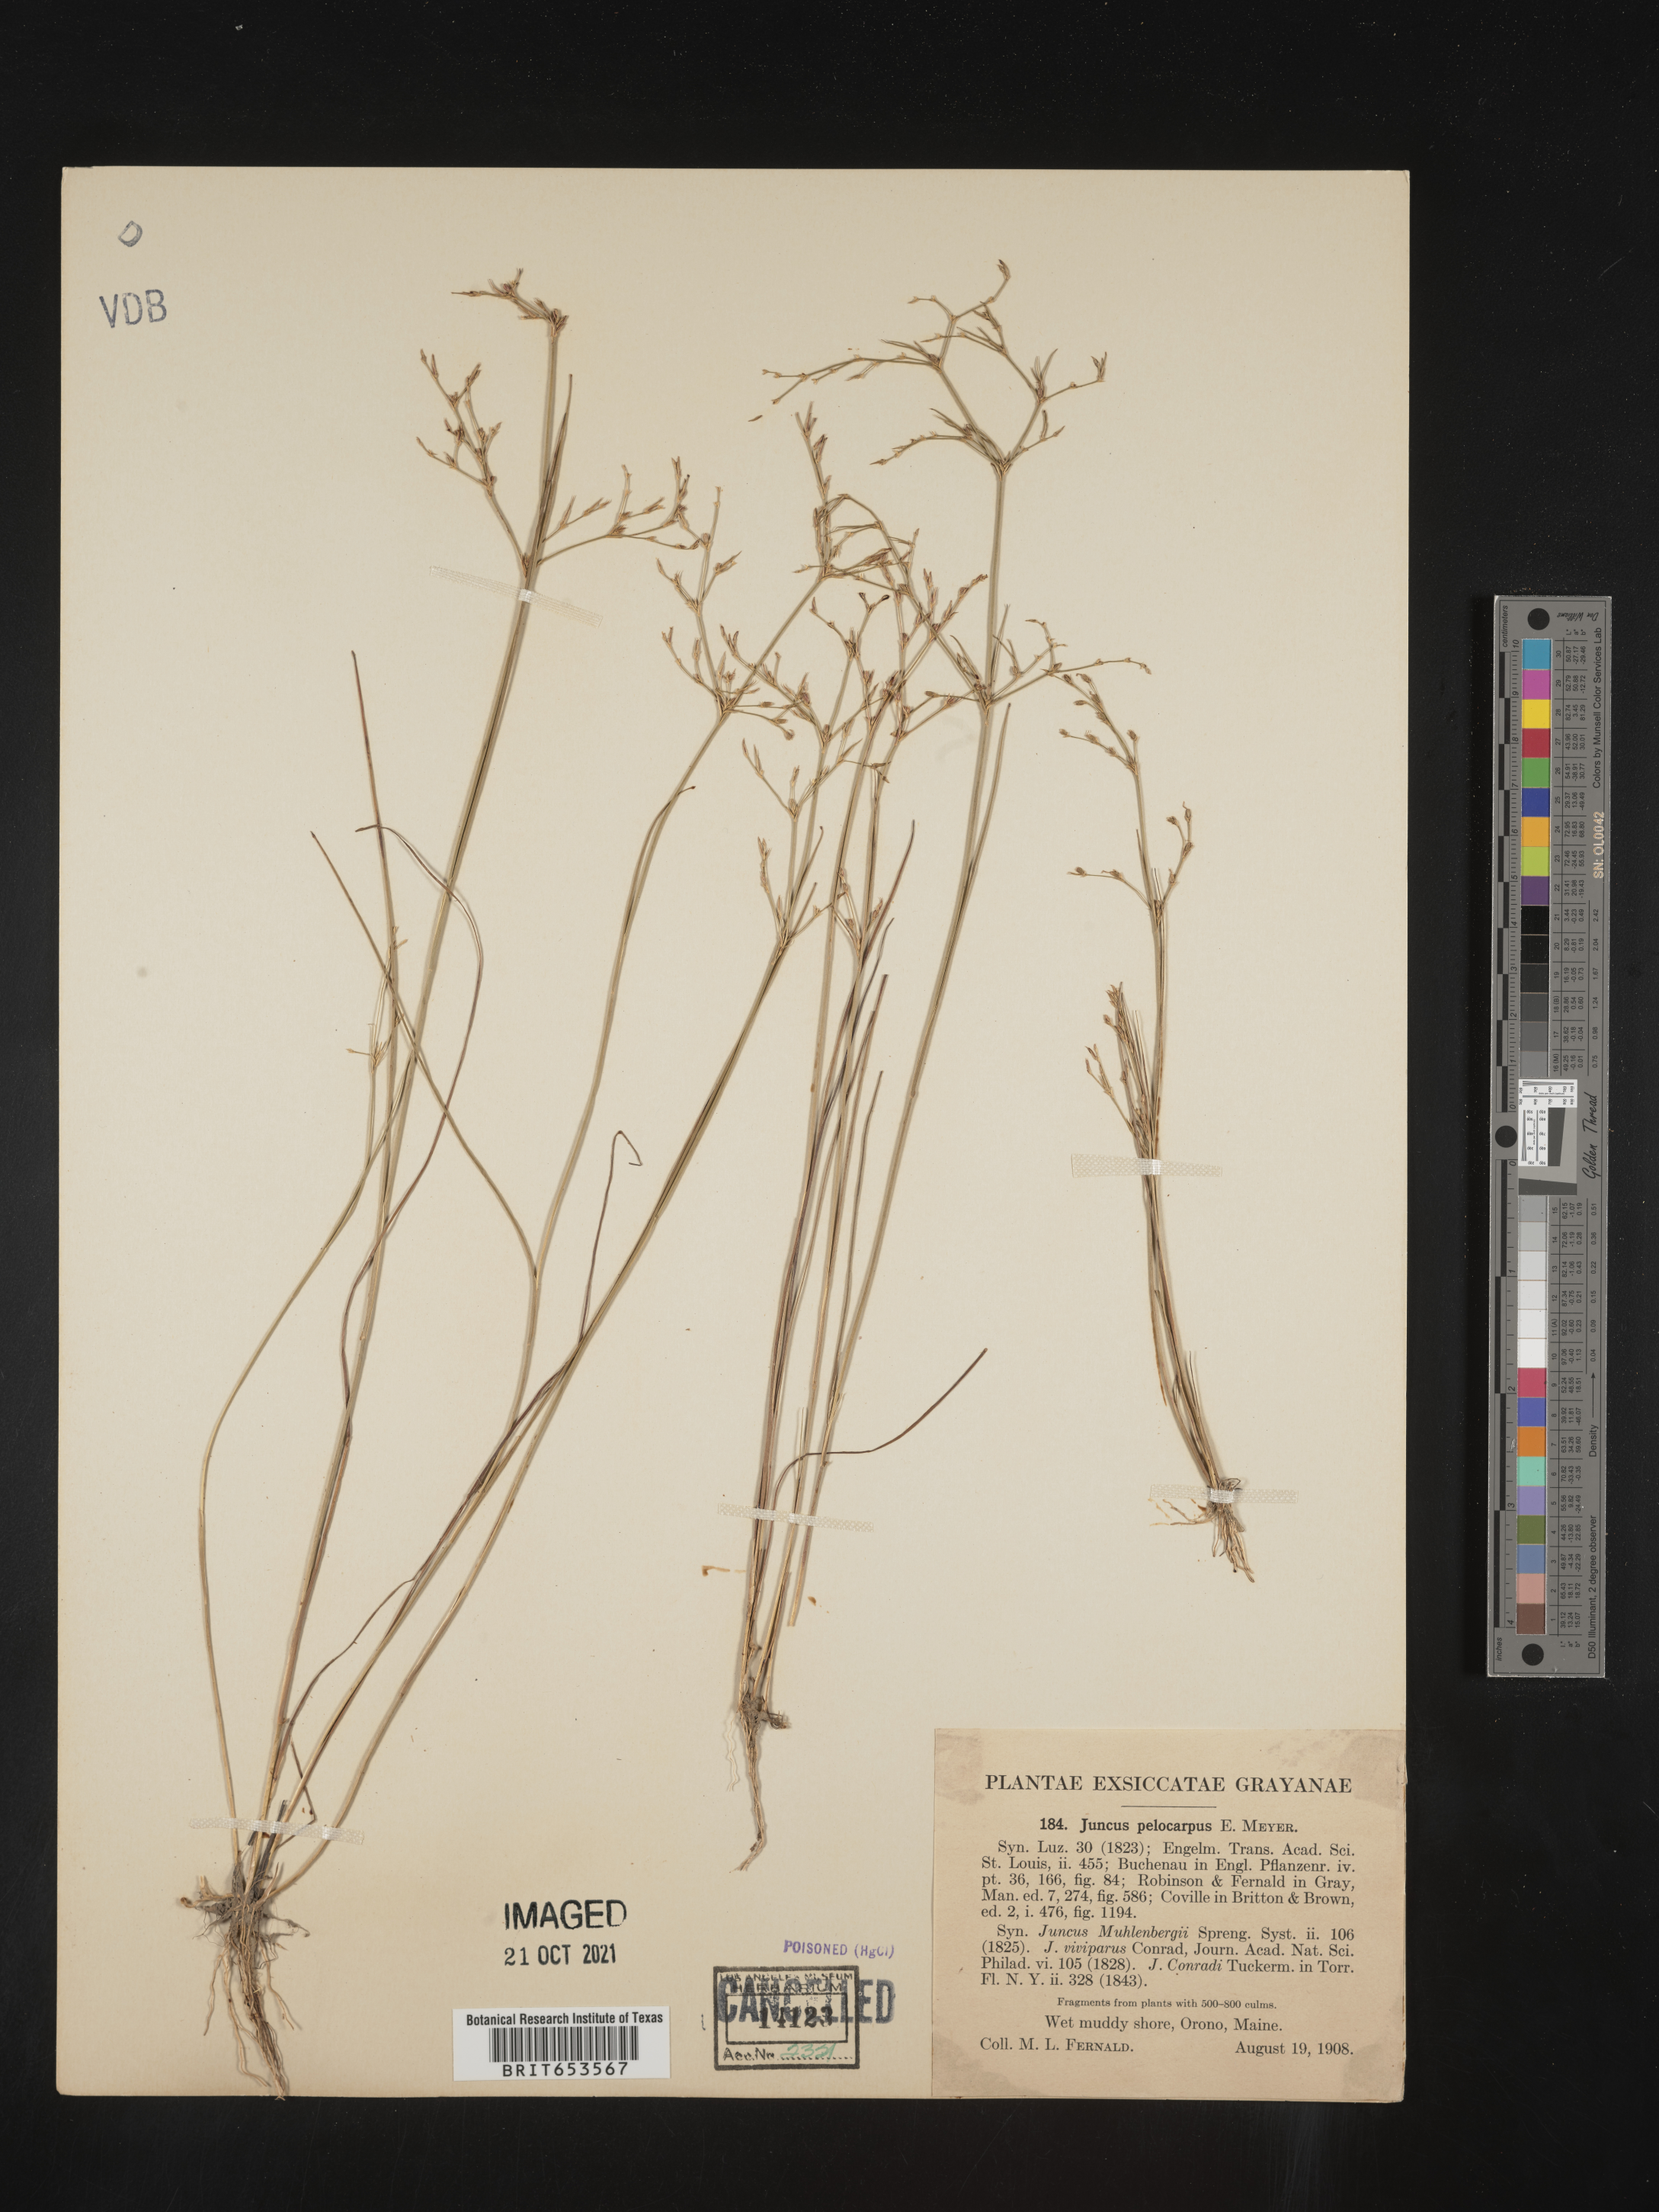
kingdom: Plantae
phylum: Tracheophyta
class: Liliopsida
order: Poales
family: Juncaceae
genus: Juncus
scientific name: Juncus pelocarpus
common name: Brown-fruited rush
